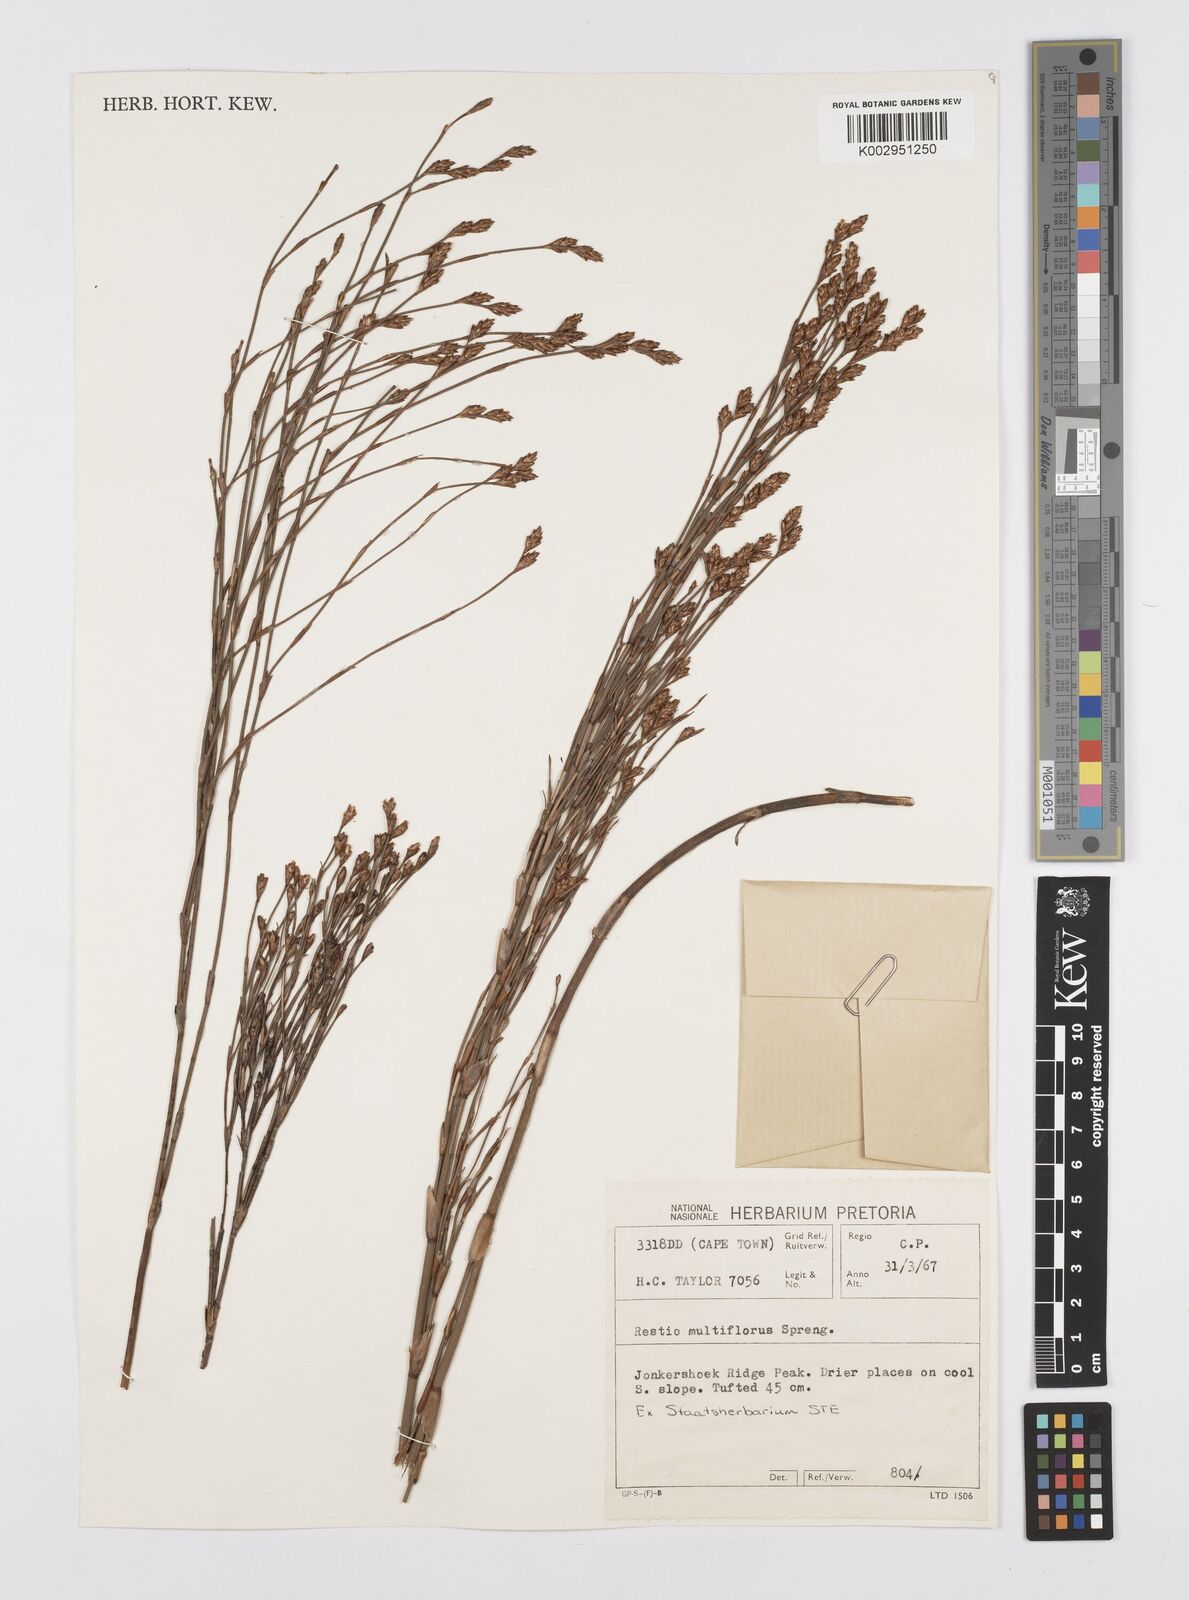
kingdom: Plantae
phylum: Tracheophyta
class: Liliopsida
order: Poales
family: Restionaceae
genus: Restio
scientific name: Restio multiflorus
